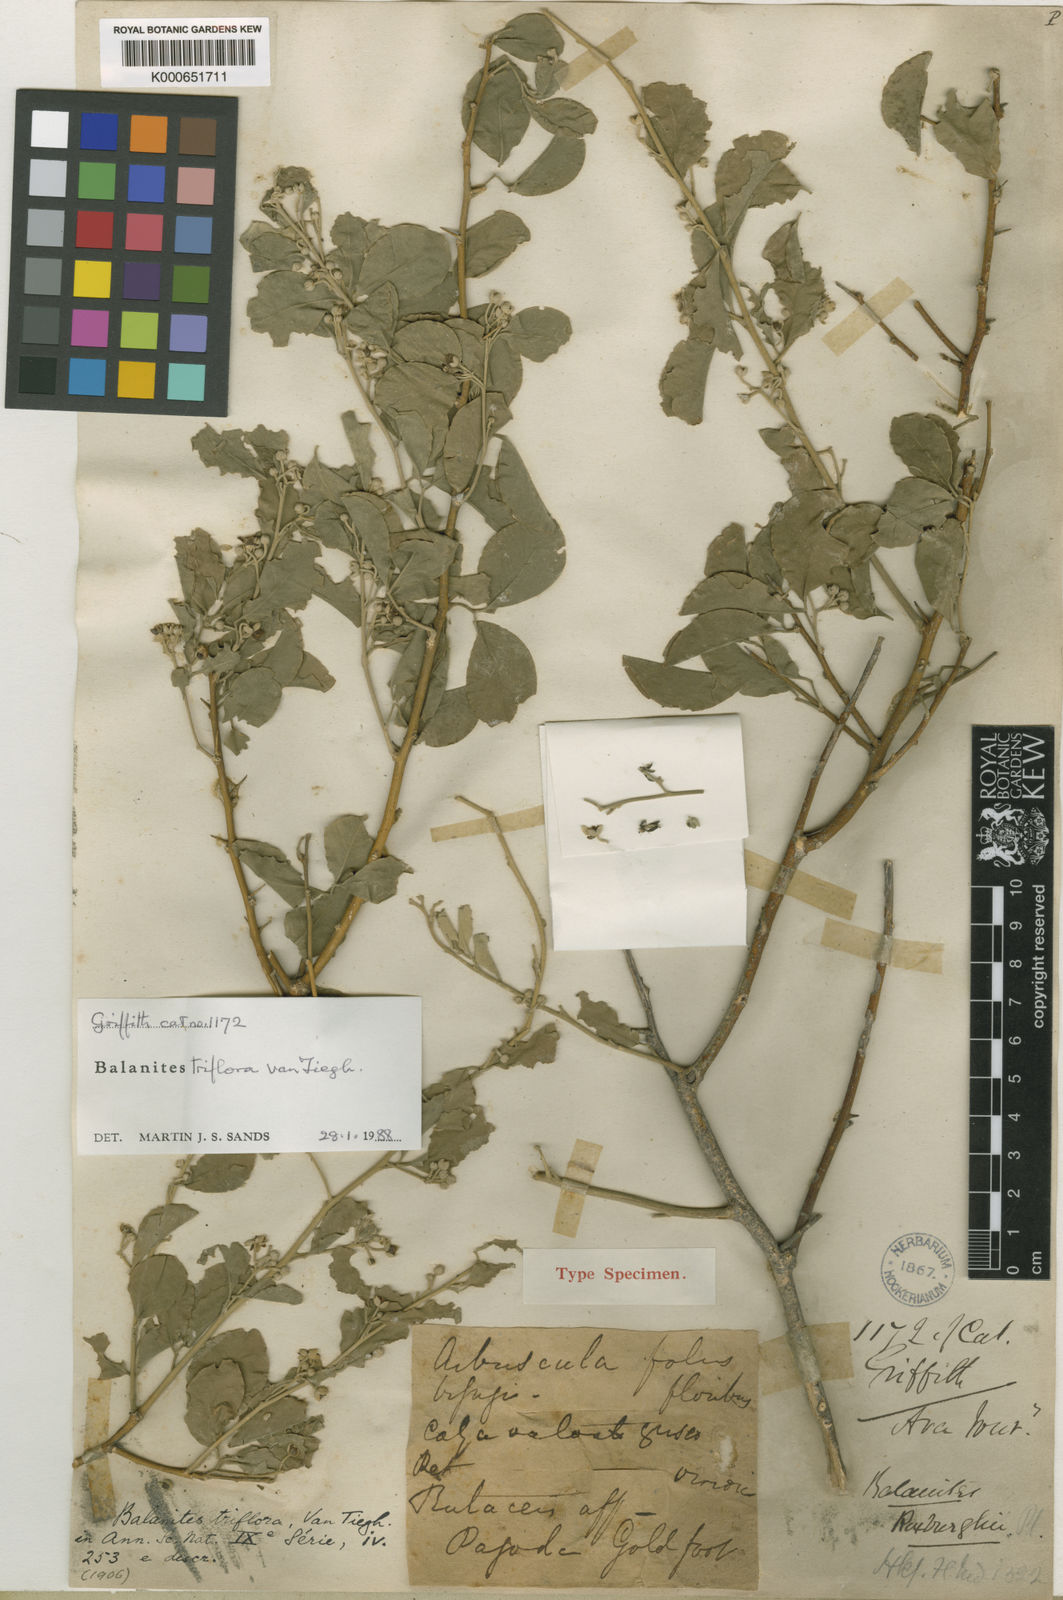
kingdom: Plantae
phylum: Tracheophyta
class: Magnoliopsida
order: Zygophyllales
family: Zygophyllaceae
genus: Balanites
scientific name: Balanites triflora
